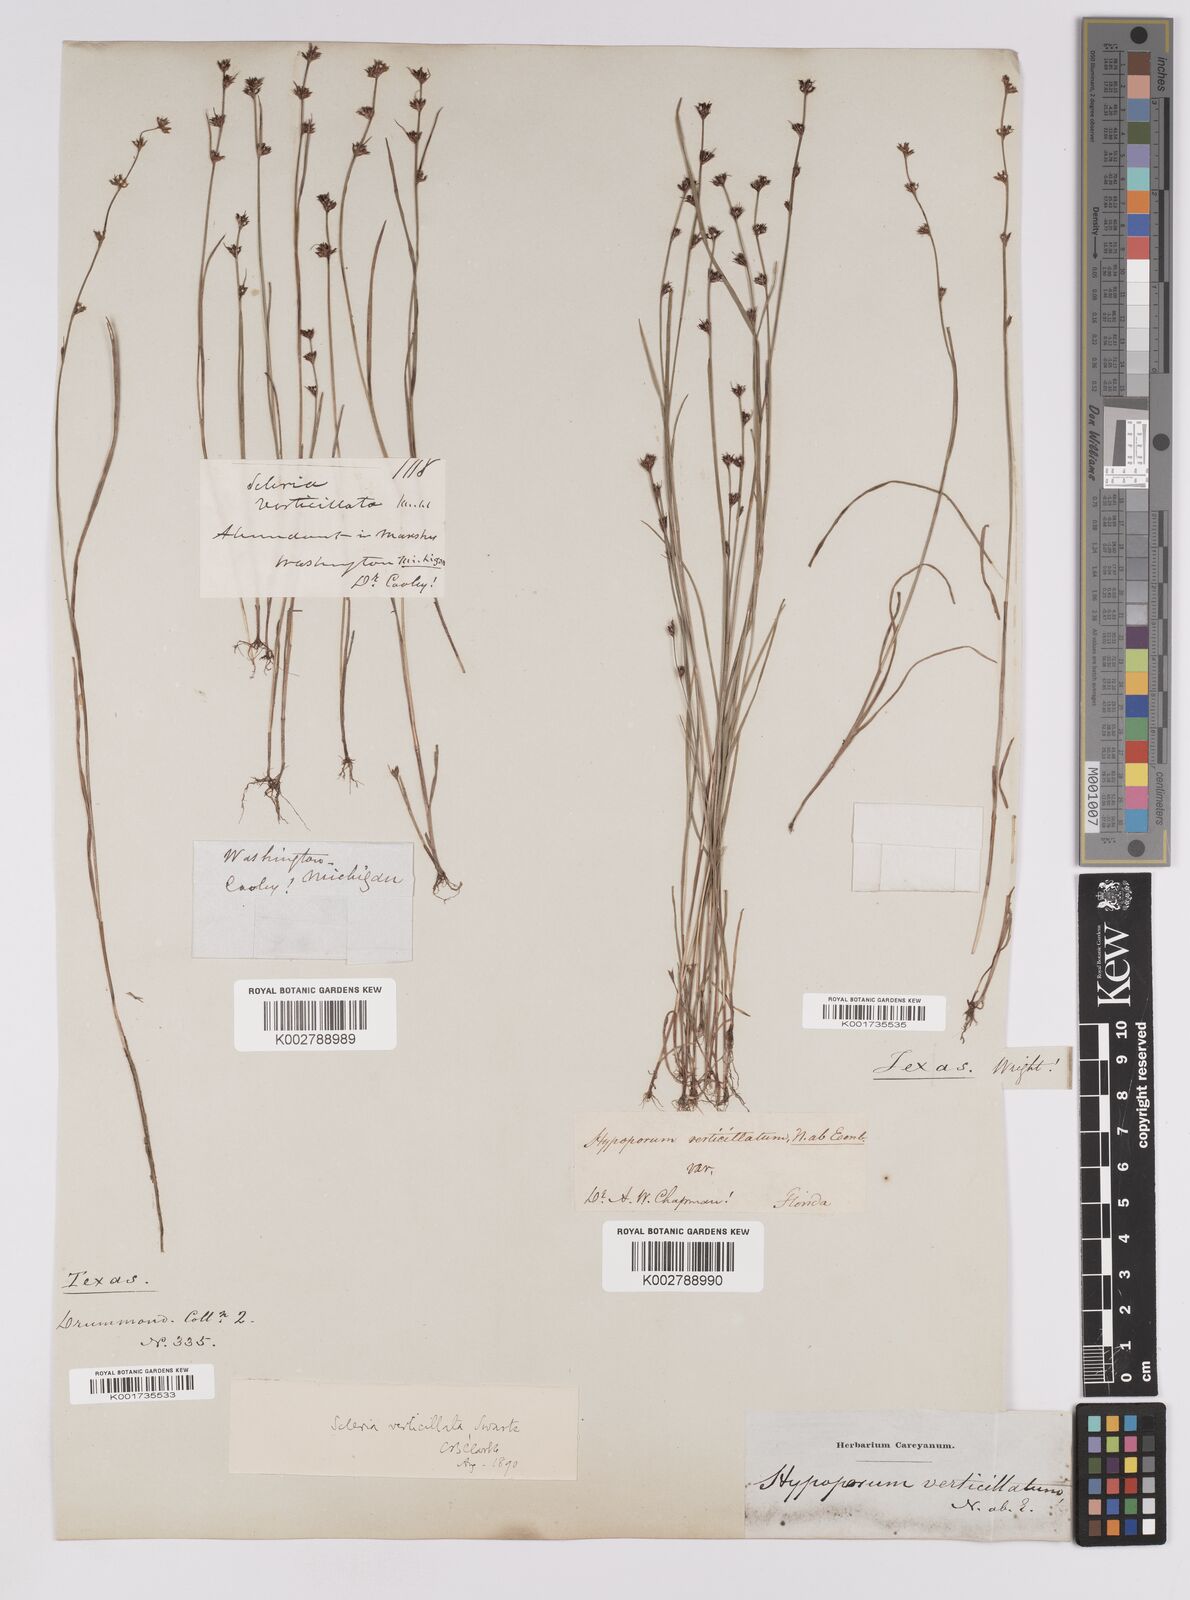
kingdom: Plantae
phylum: Tracheophyta
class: Liliopsida
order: Poales
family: Cyperaceae
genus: Scleria
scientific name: Scleria verticillata
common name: Low nutrush
